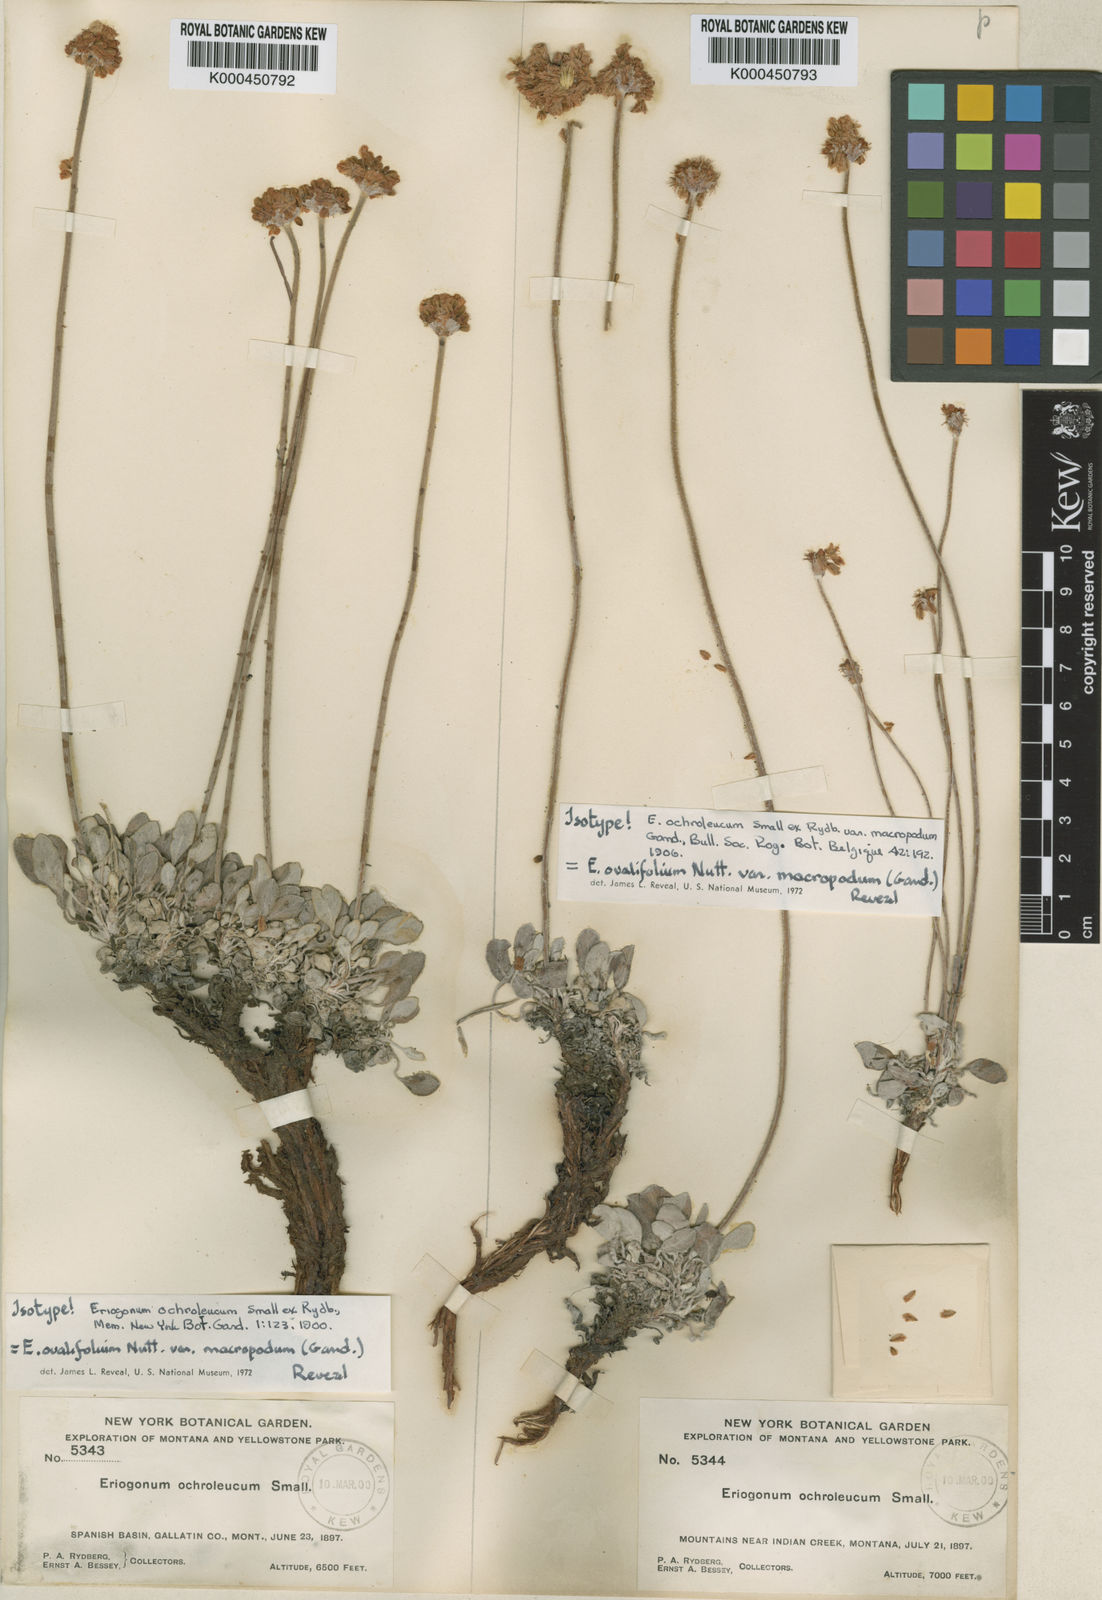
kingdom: Plantae
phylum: Tracheophyta
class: Magnoliopsida
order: Caryophyllales
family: Polygonaceae
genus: Eriogonum
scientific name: Eriogonum ovalifolium
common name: Cushion buckwheat
